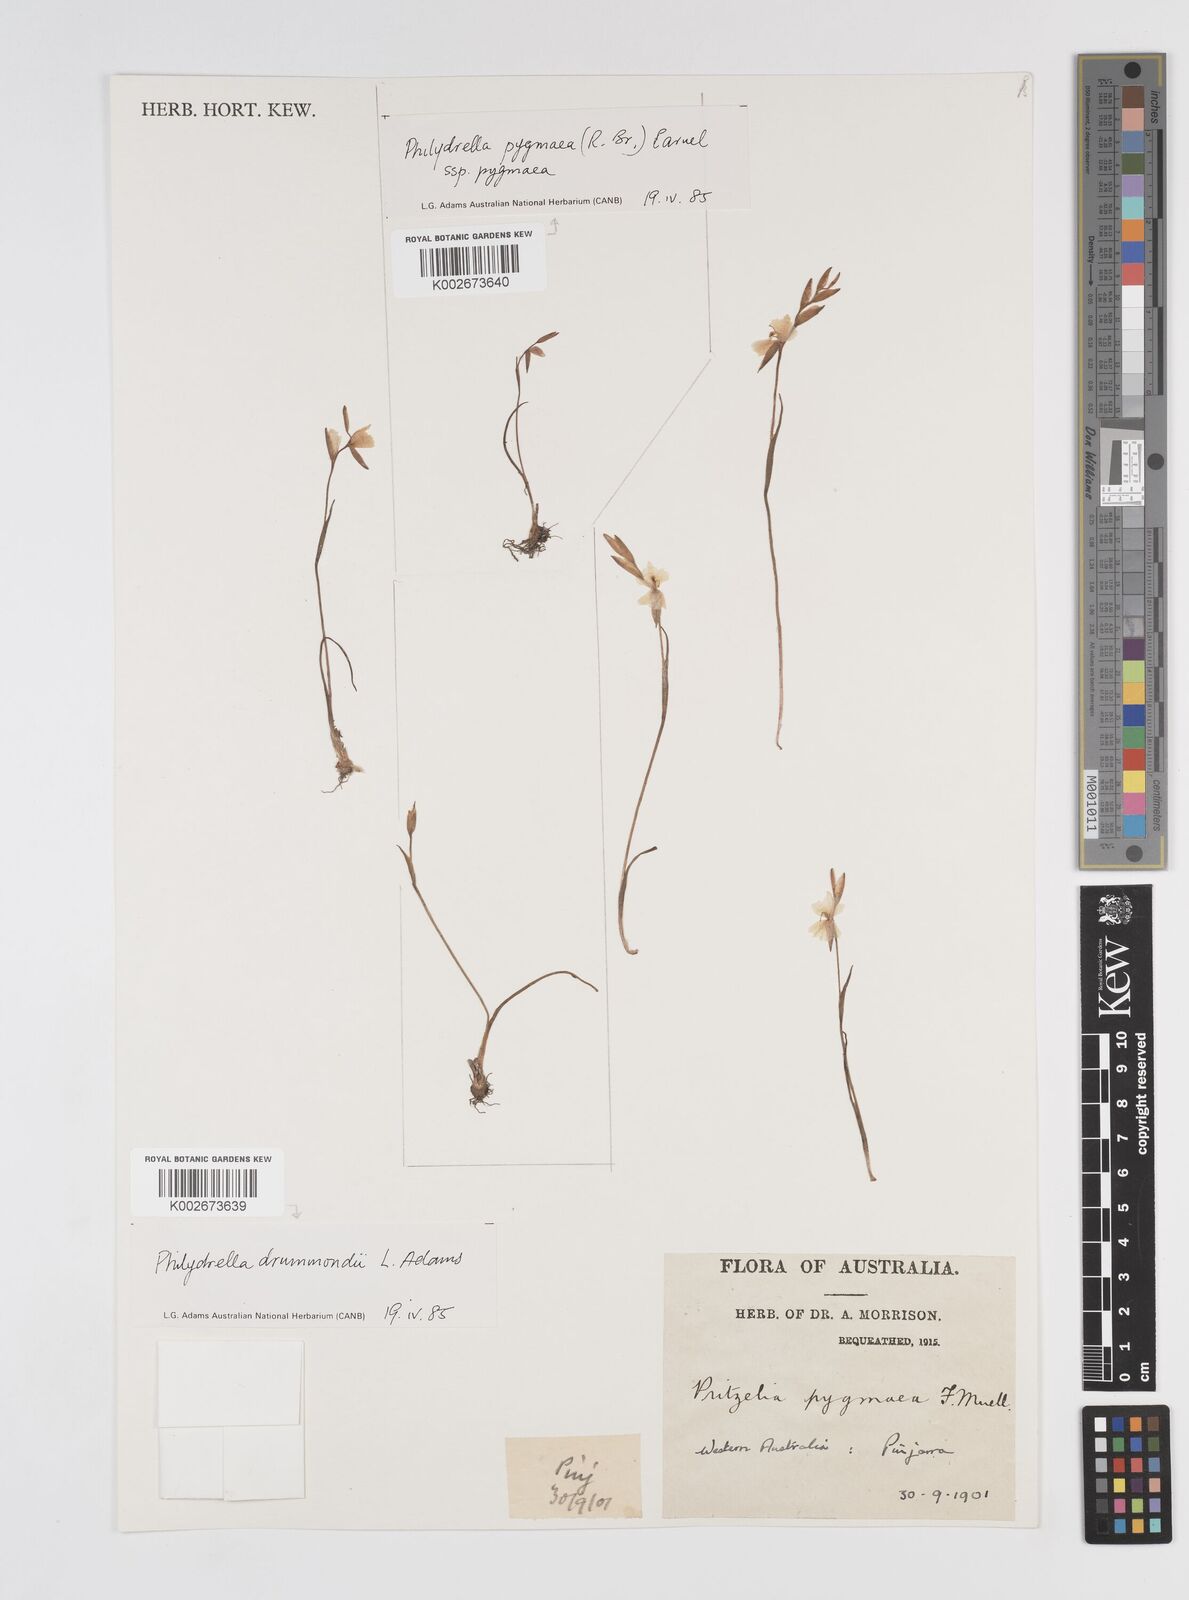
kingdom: Plantae
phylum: Tracheophyta
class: Liliopsida
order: Commelinales
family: Philydraceae
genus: Philydrella
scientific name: Philydrella drummondii
